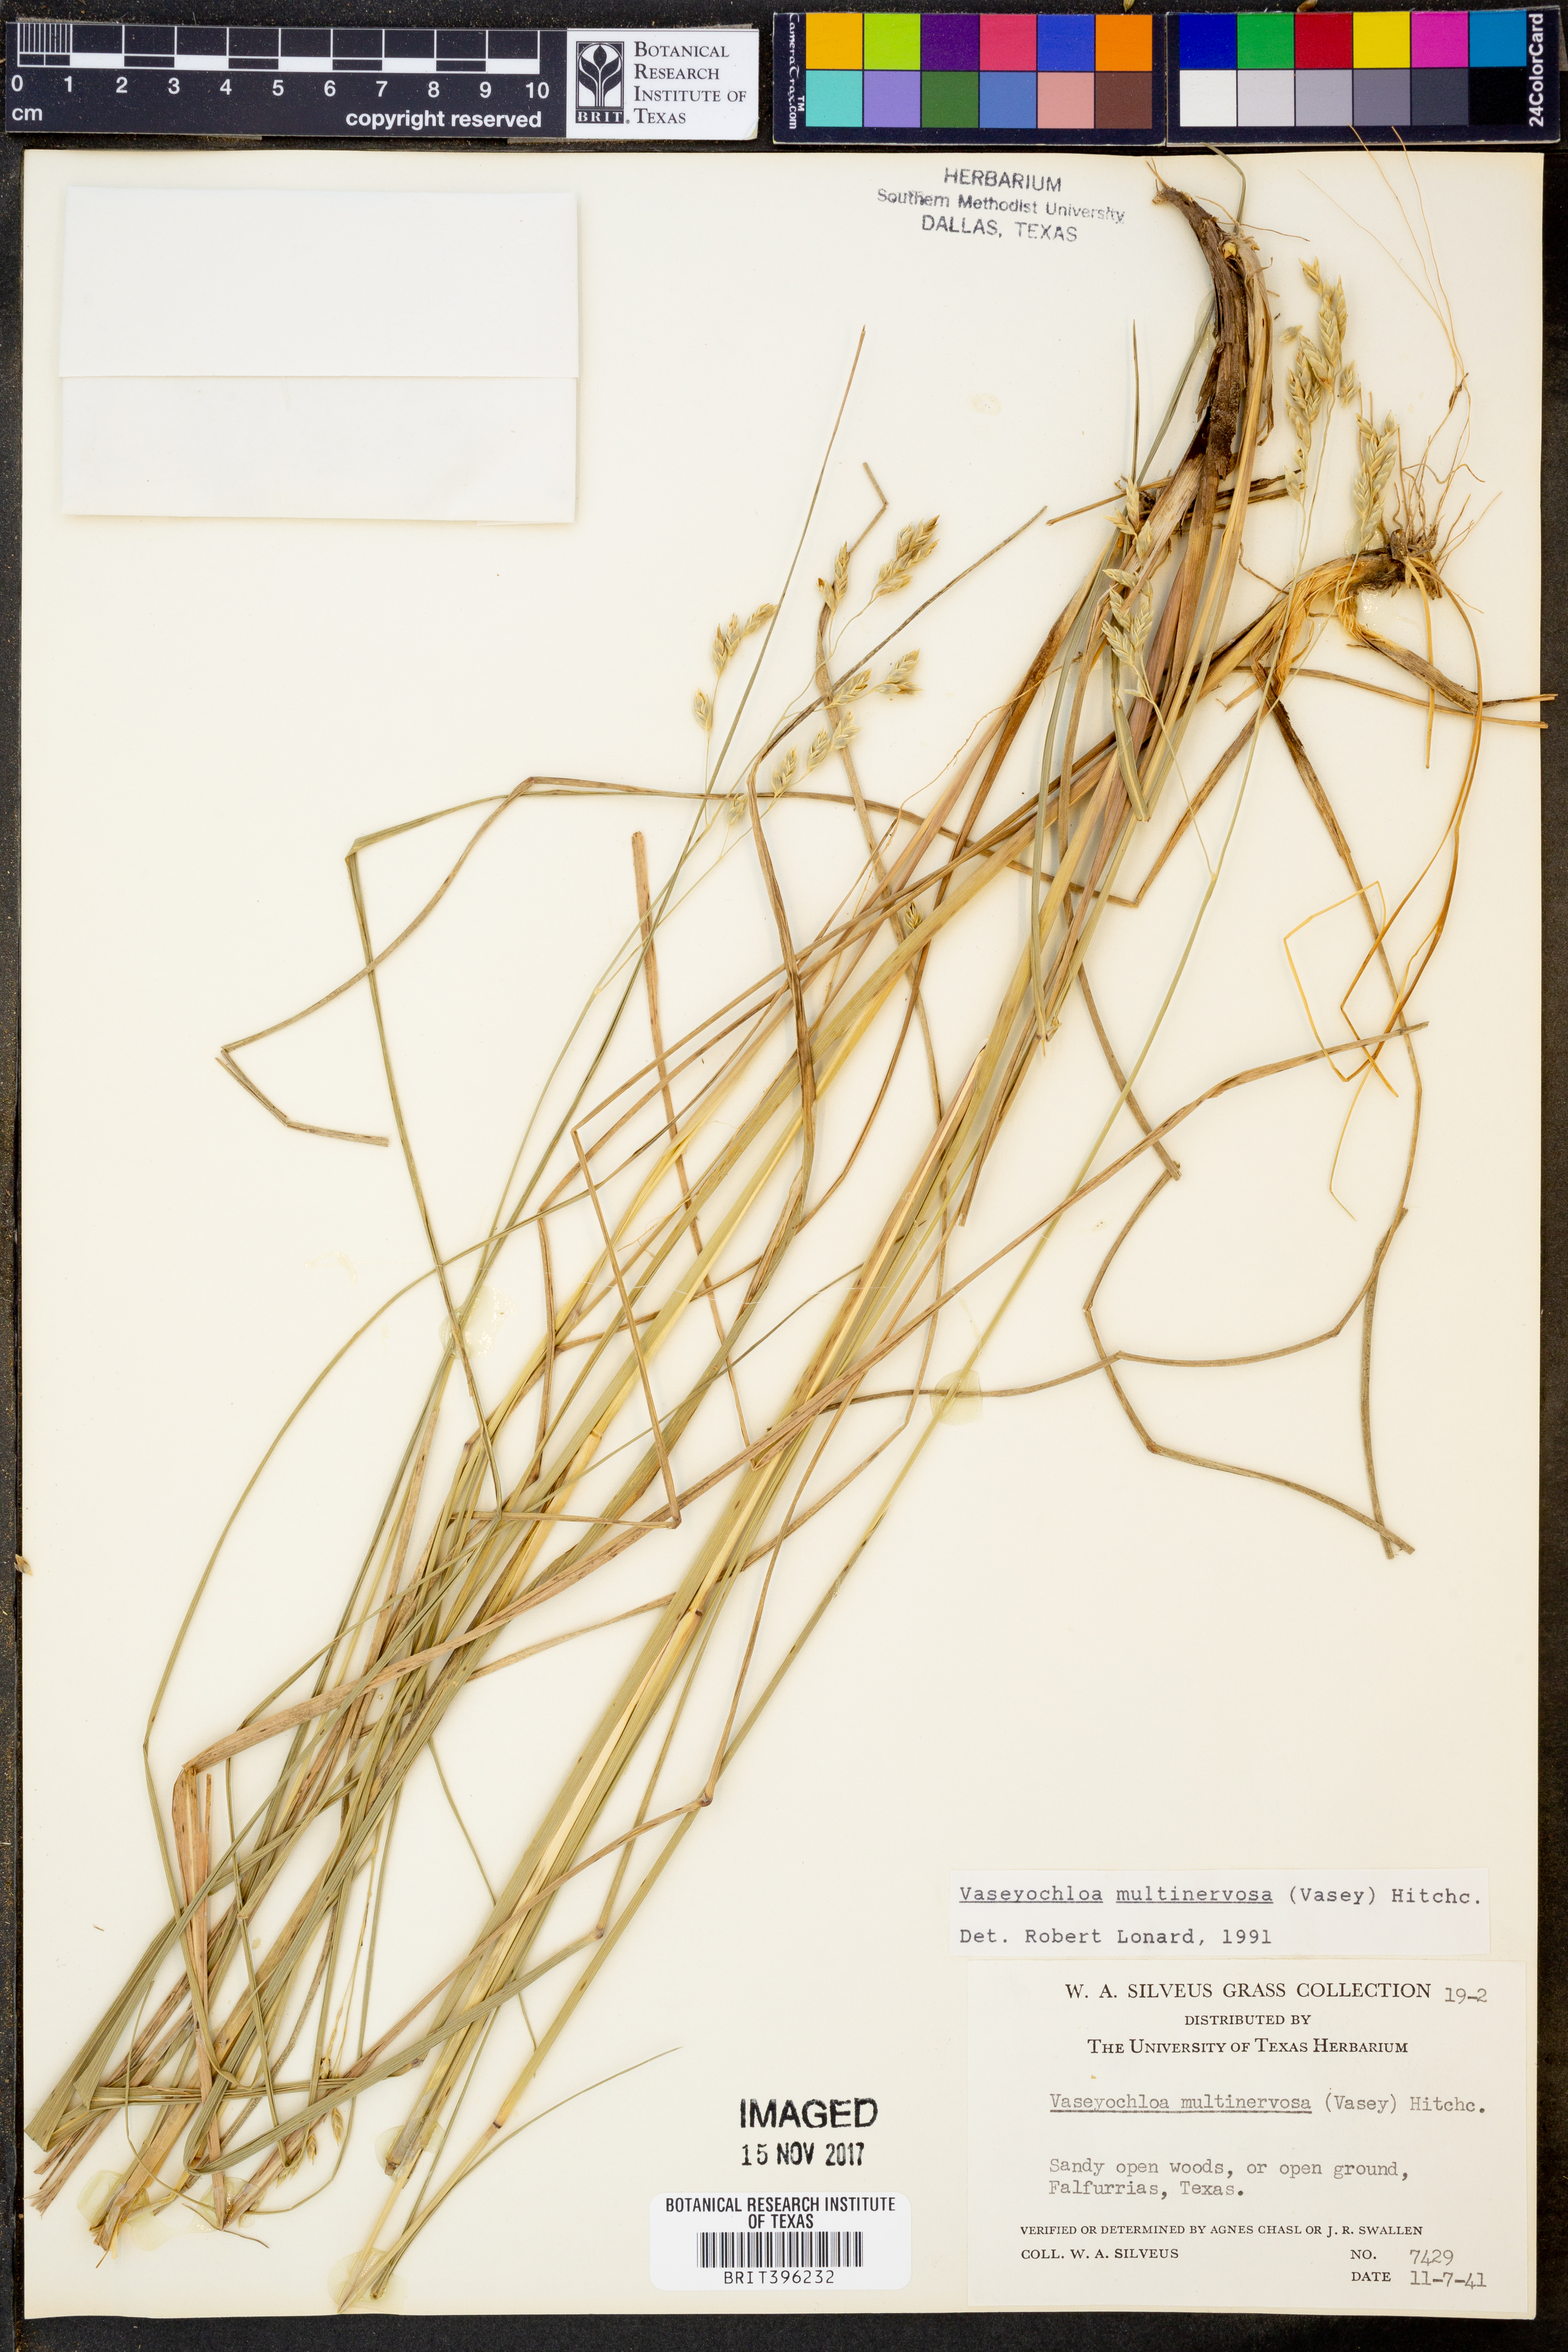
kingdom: Plantae
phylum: Tracheophyta
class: Liliopsida
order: Poales
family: Poaceae
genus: Vaseyochloa
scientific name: Vaseyochloa multinervosa
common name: Texas grass
